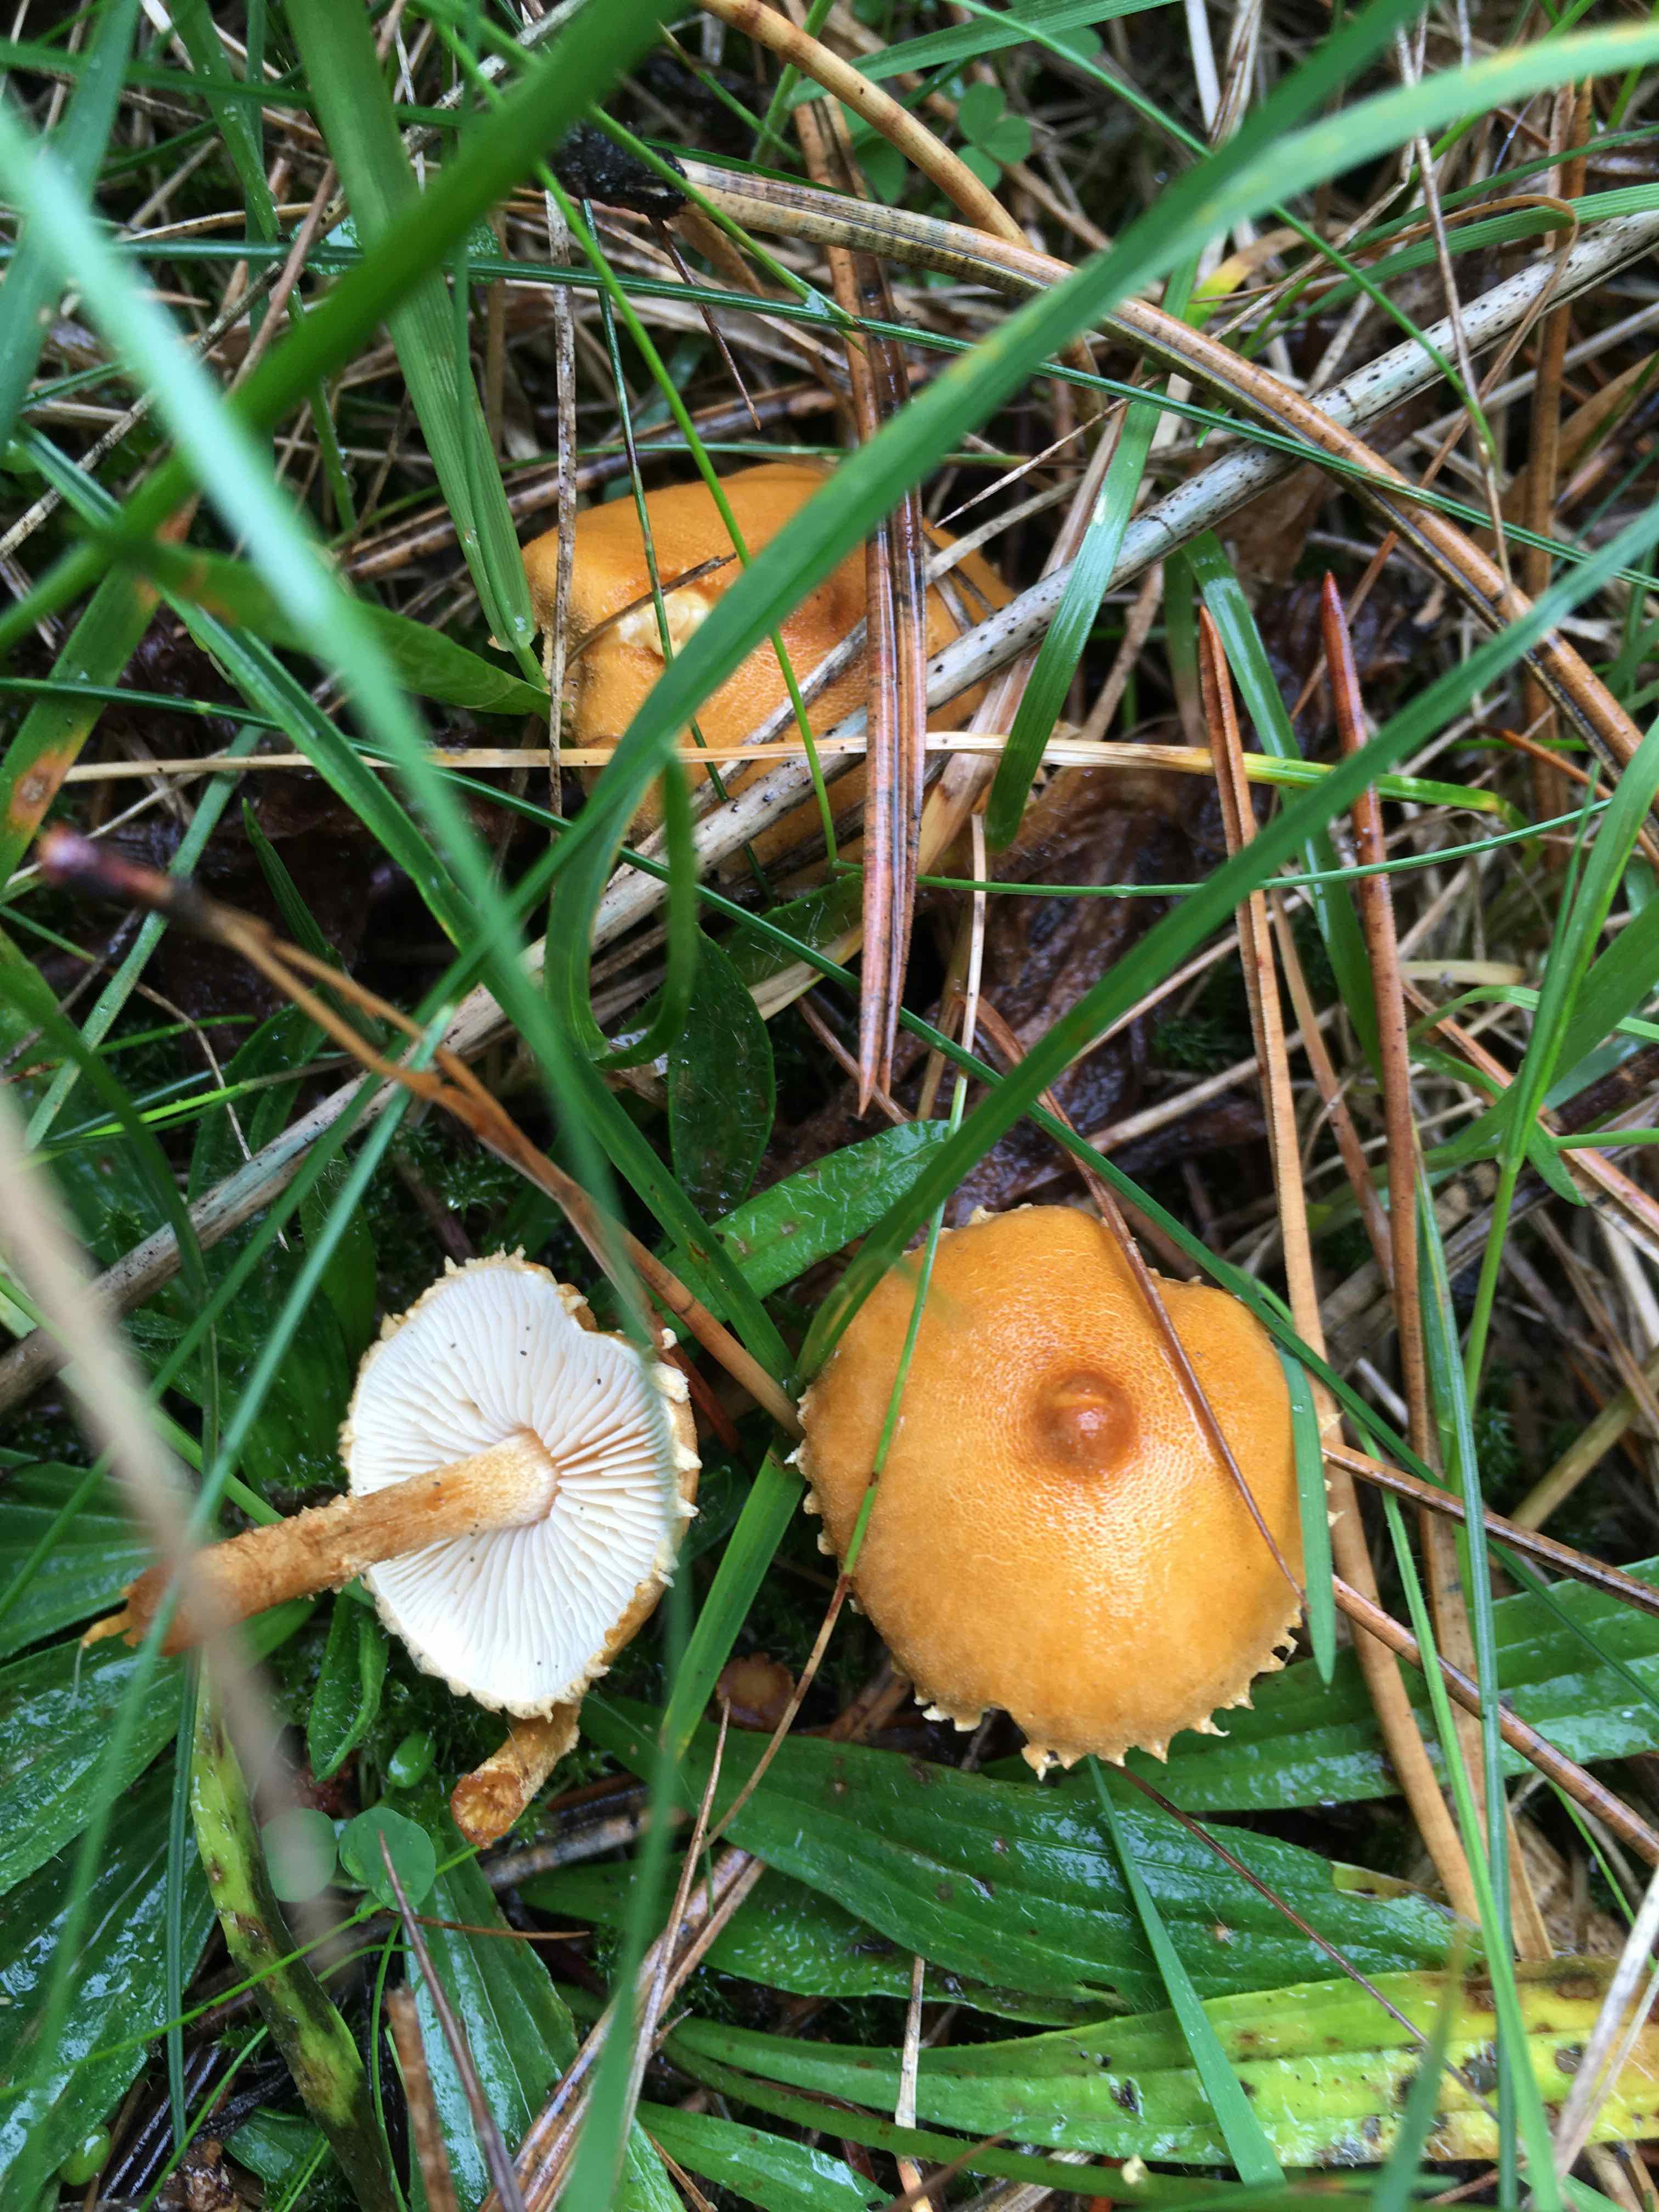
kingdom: Fungi
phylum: Basidiomycota
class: Agaricomycetes
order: Agaricales
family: Tricholomataceae
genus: Cystoderma
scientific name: Cystoderma amianthinum
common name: okkergul grynhat
